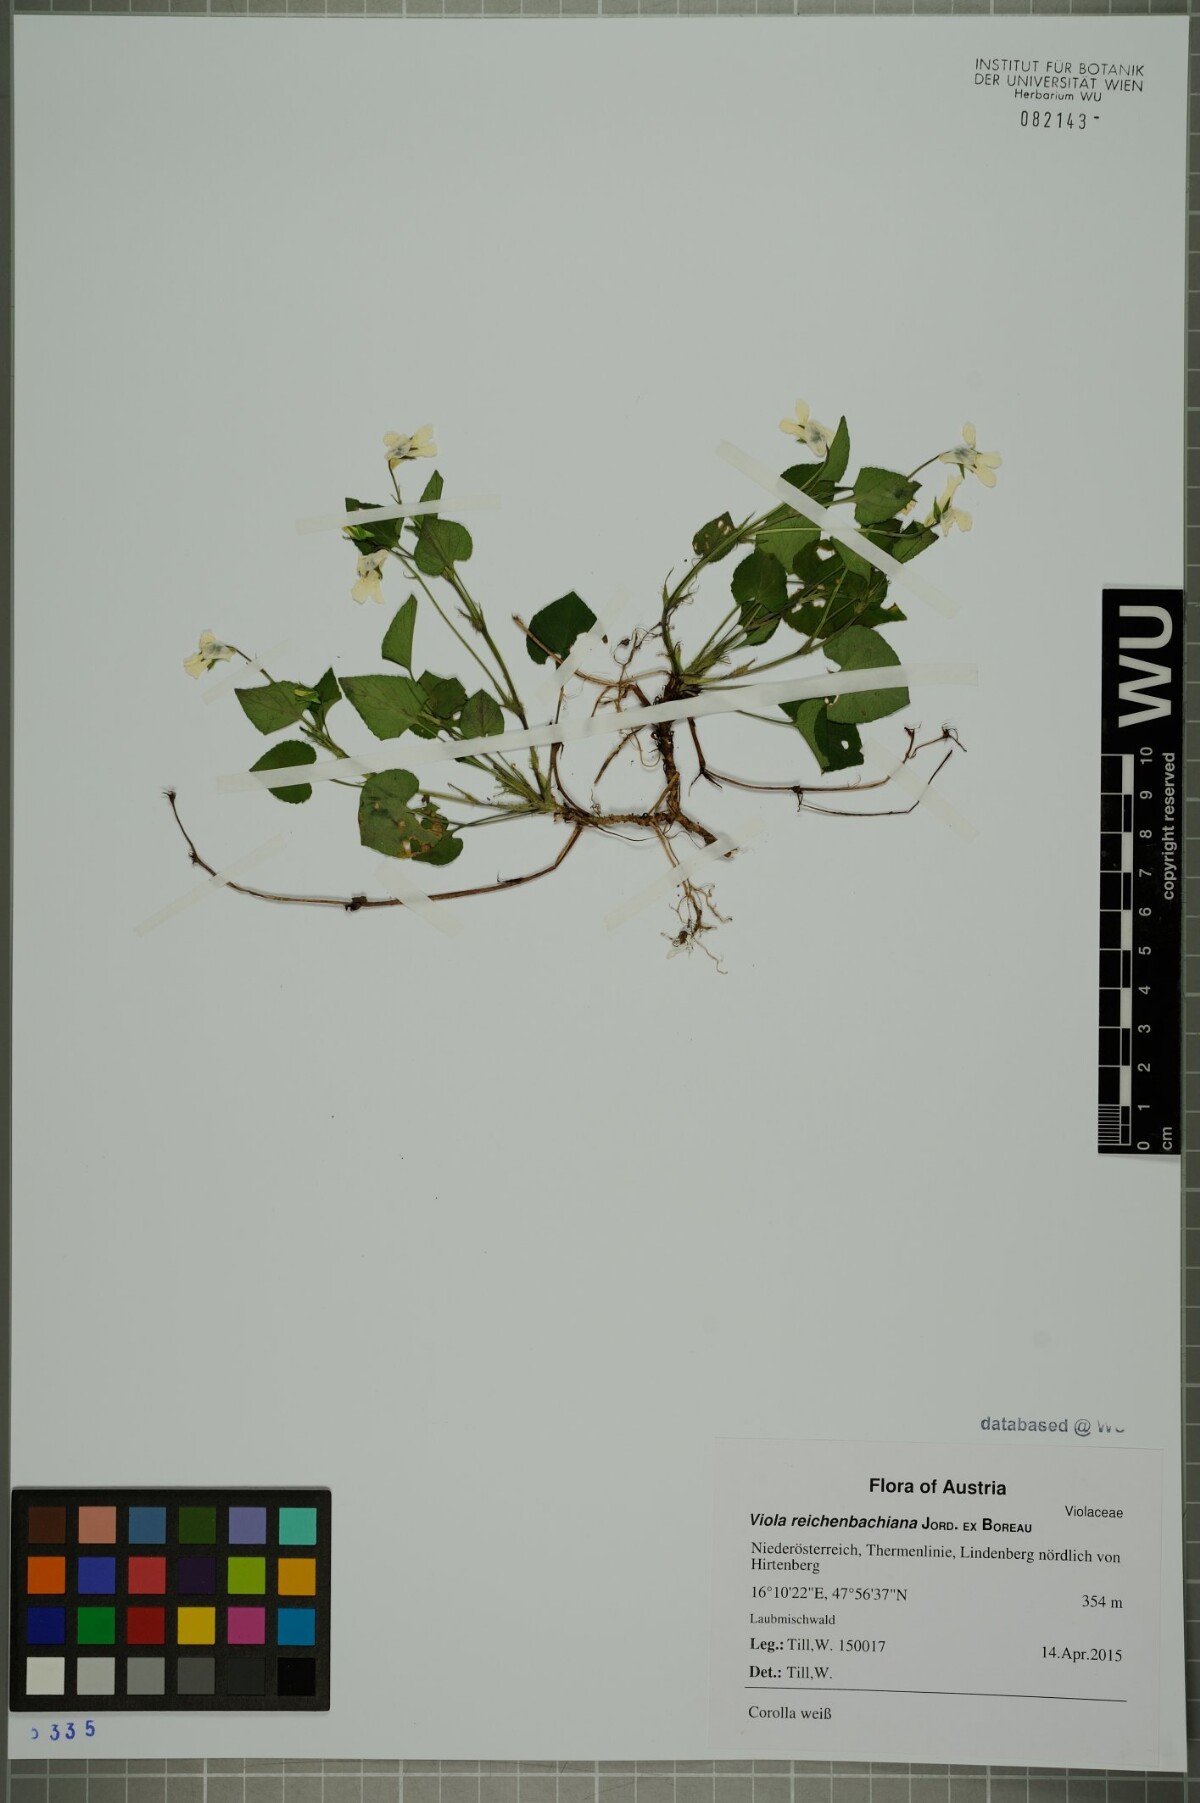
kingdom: Plantae
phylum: Tracheophyta
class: Magnoliopsida
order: Malpighiales
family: Violaceae
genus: Viola
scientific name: Viola reichenbachiana
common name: Early dog-violet
